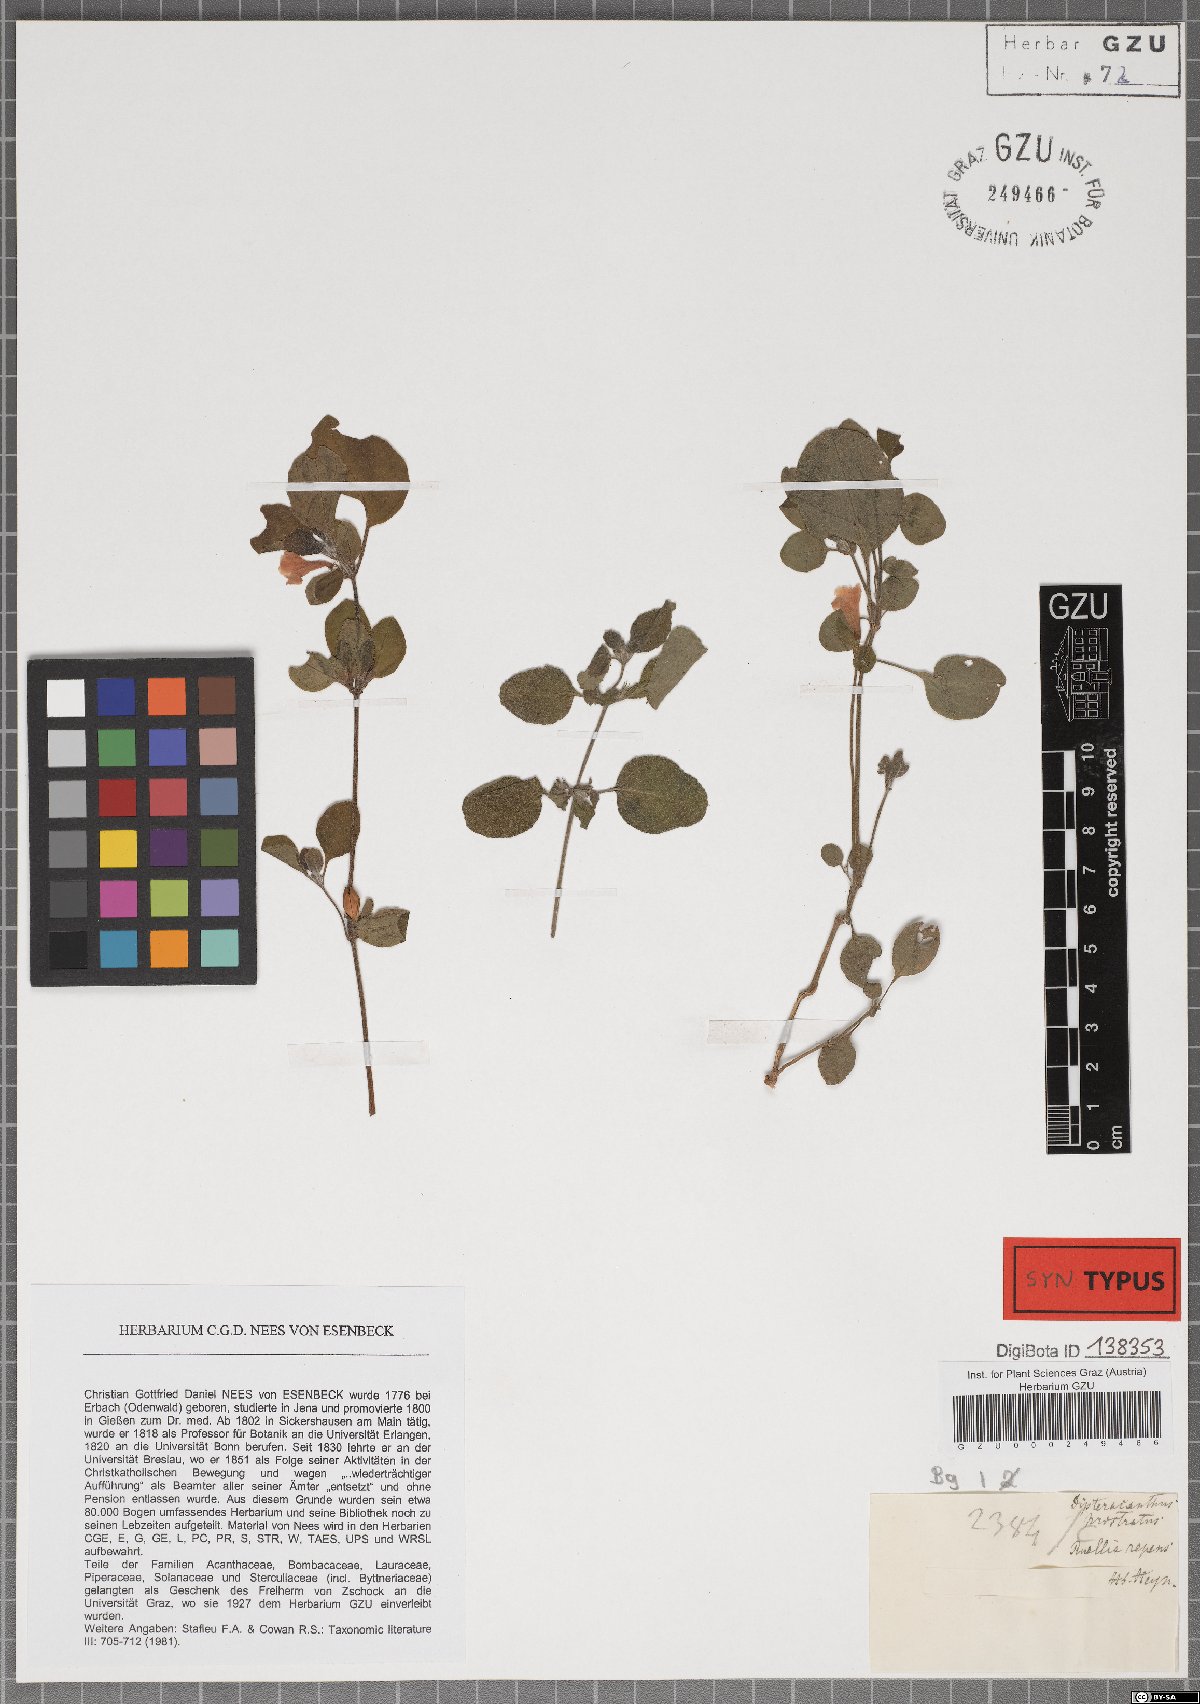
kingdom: Plantae
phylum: Tracheophyta
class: Magnoliopsida
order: Lamiales
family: Acanthaceae
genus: Ruellia
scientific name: Ruellia prostrata
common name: Prostrate wild petunia
